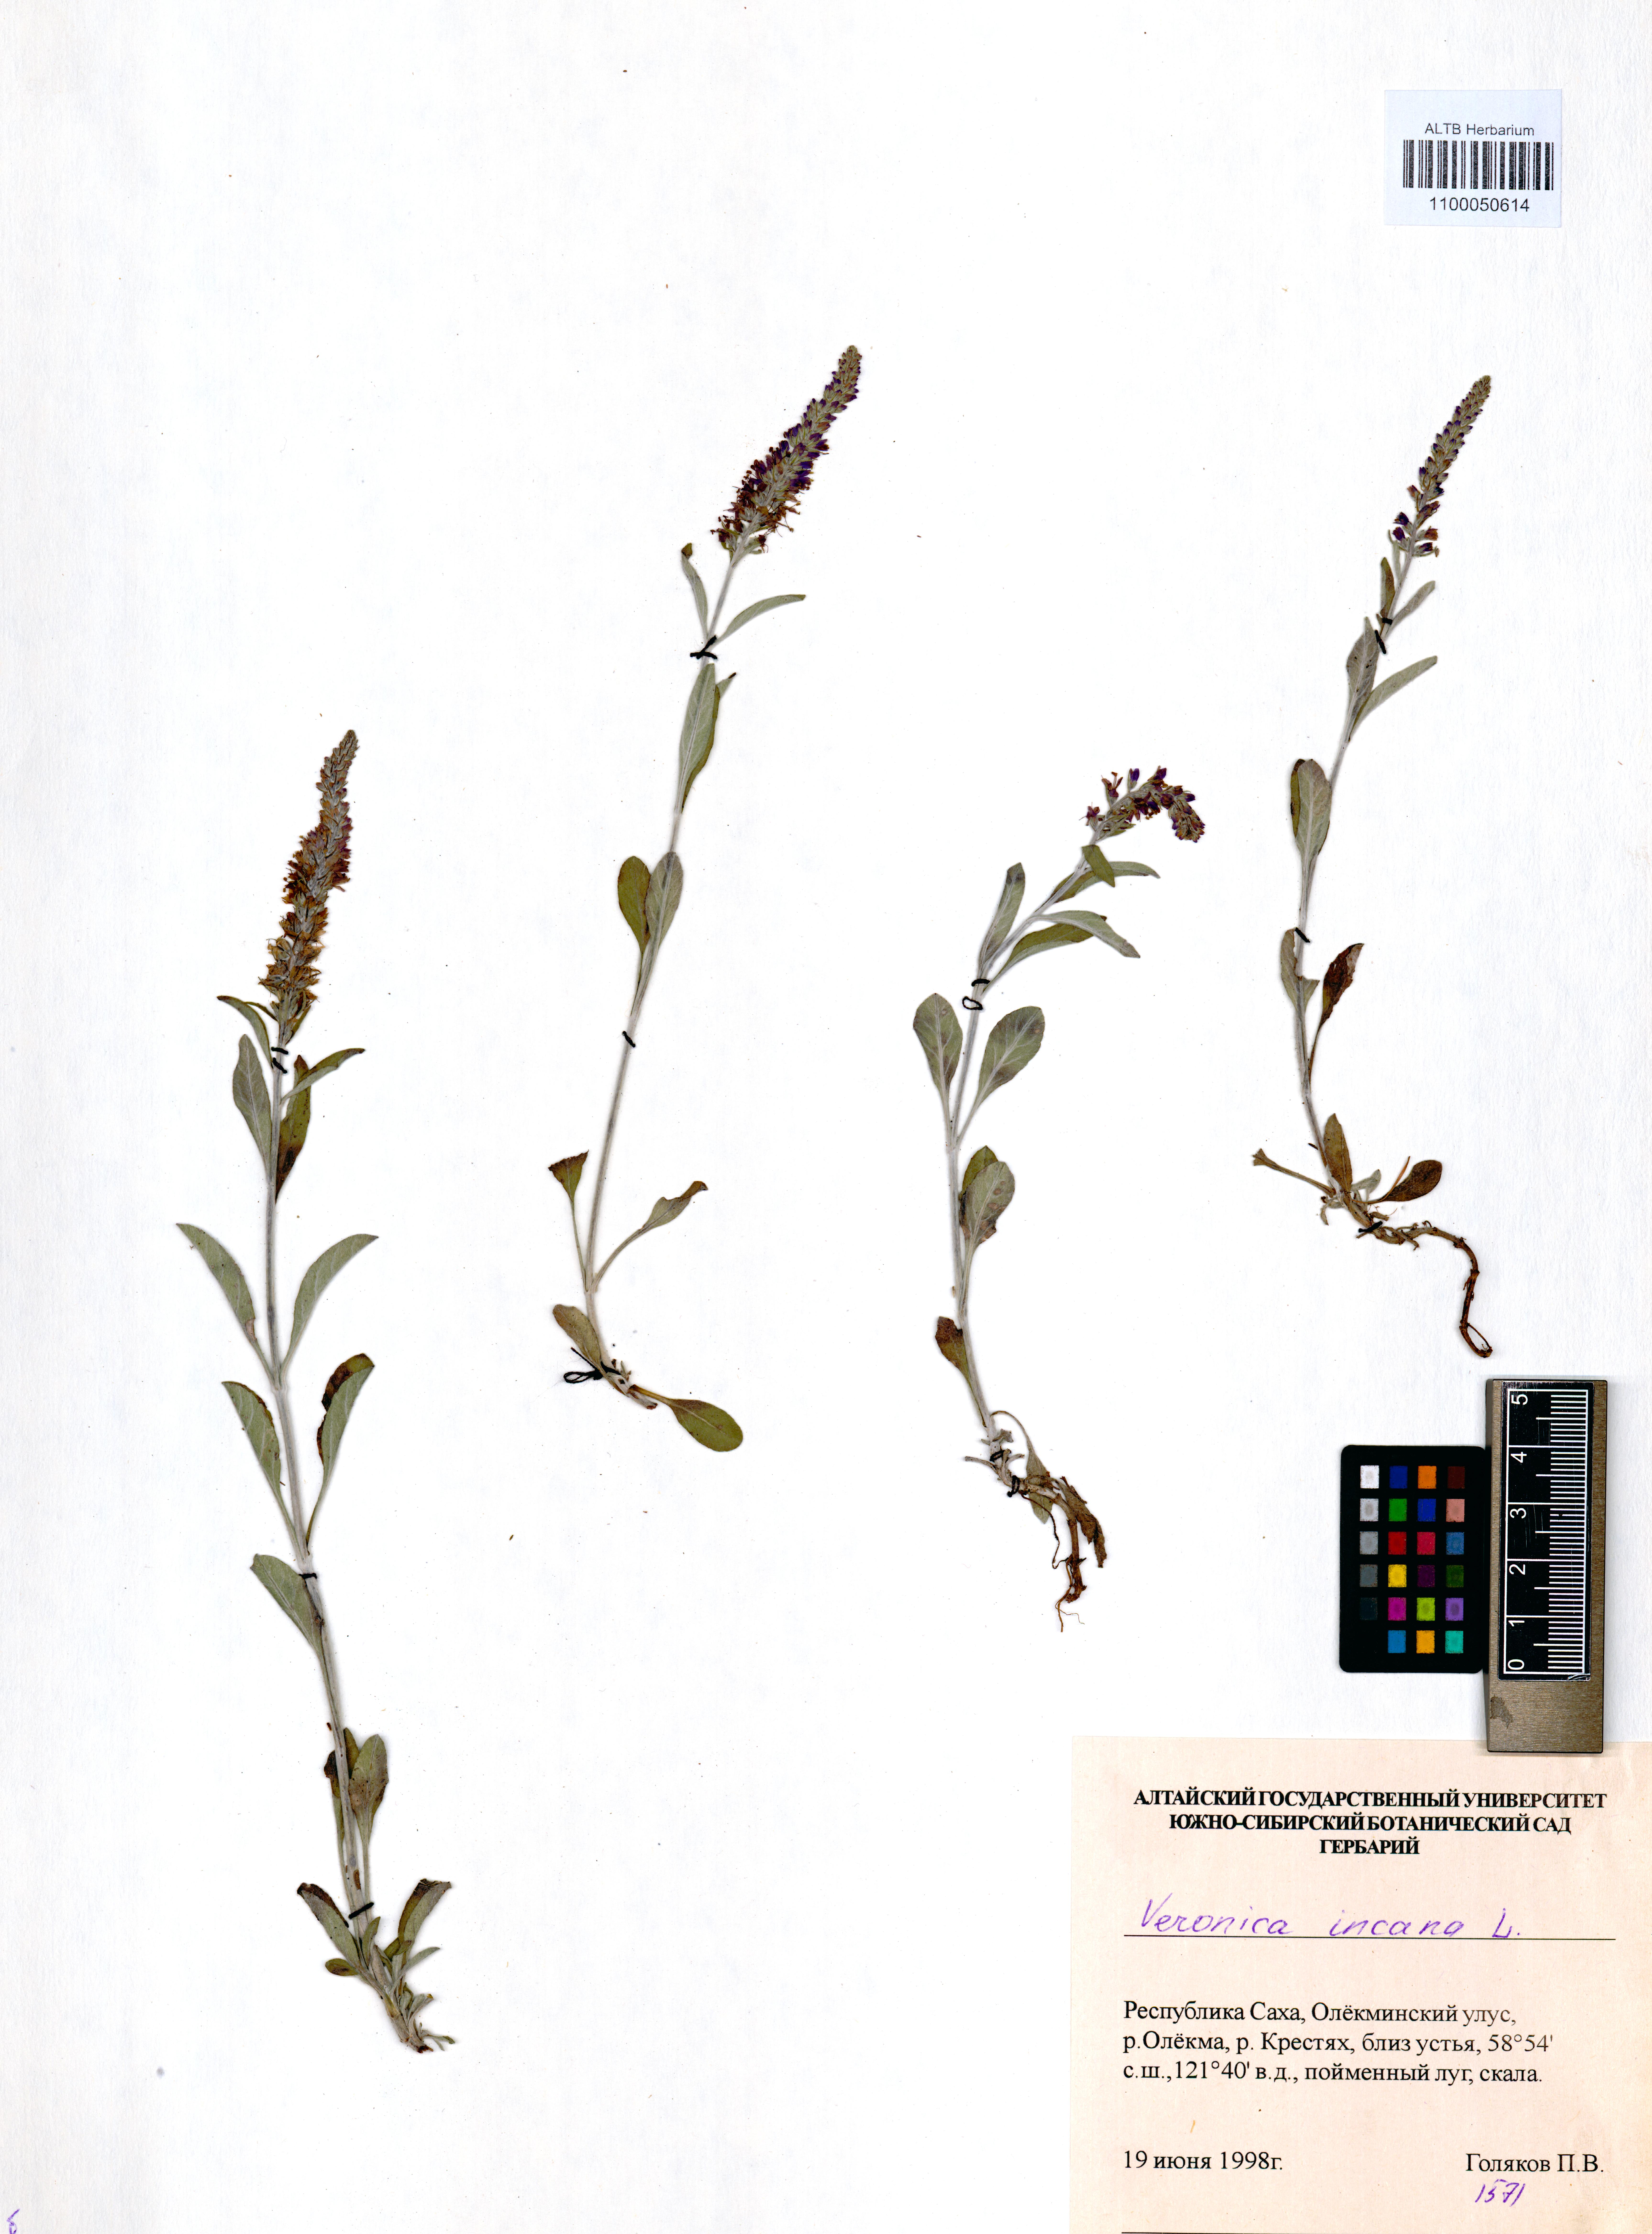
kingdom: Plantae
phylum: Tracheophyta
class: Magnoliopsida
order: Lamiales
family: Plantaginaceae
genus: Veronica
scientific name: Veronica incana
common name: Silver speedwell
